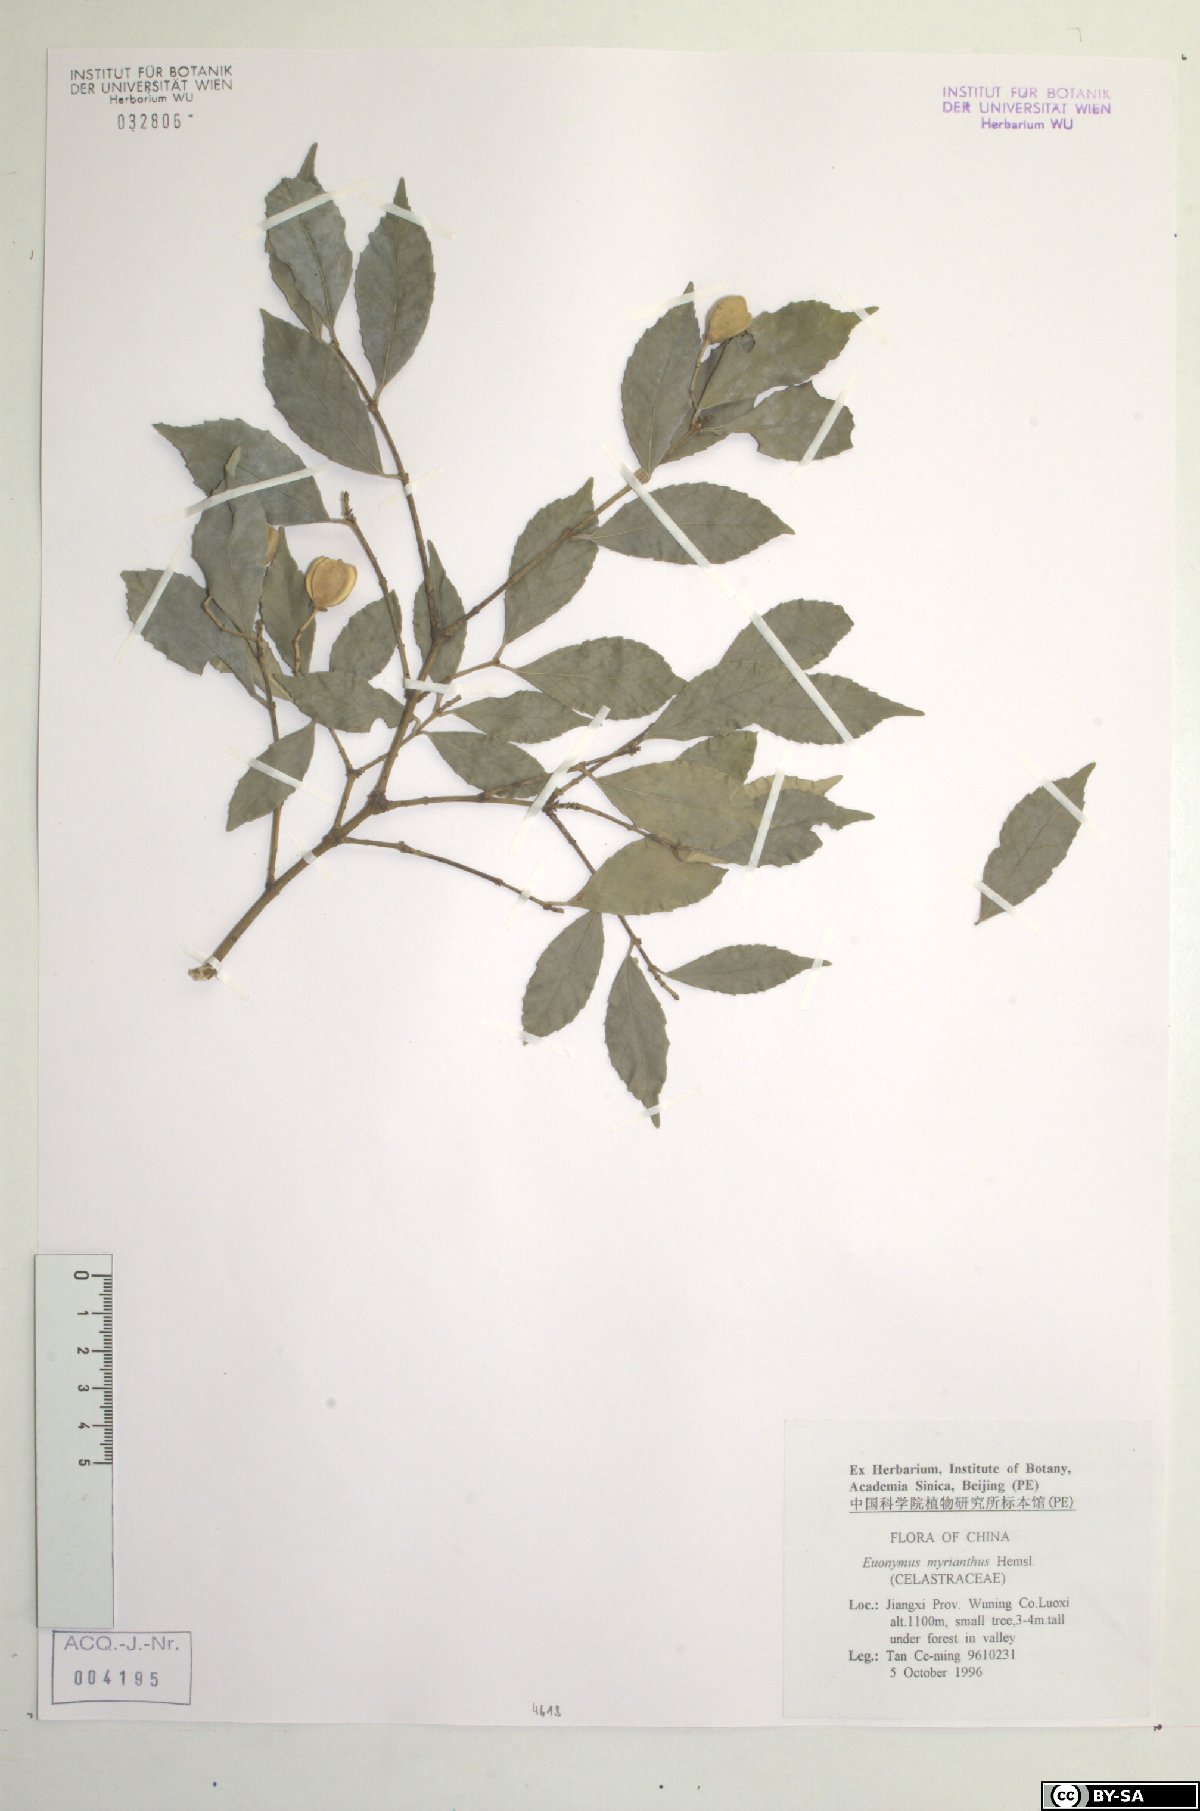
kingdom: Plantae
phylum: Tracheophyta
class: Magnoliopsida
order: Celastrales
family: Celastraceae
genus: Euonymus
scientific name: Euonymus myrianthus
